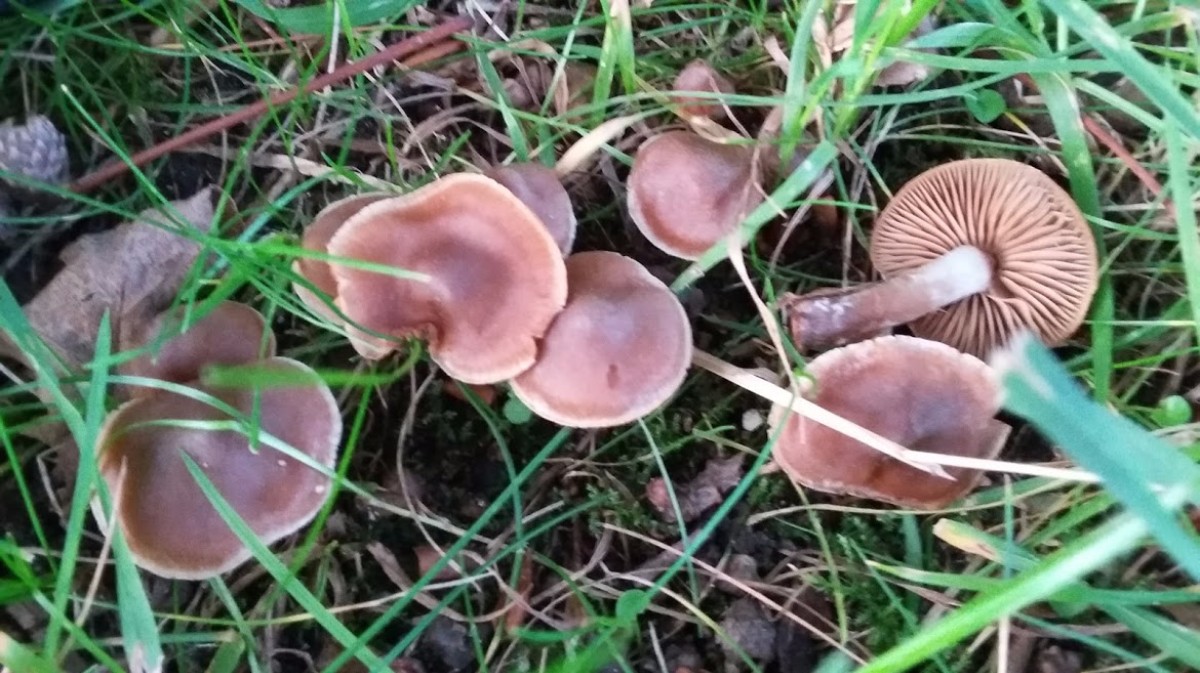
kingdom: Fungi
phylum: Basidiomycota
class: Agaricomycetes
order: Agaricales
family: Cortinariaceae
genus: Cortinarius
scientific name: Cortinarius
